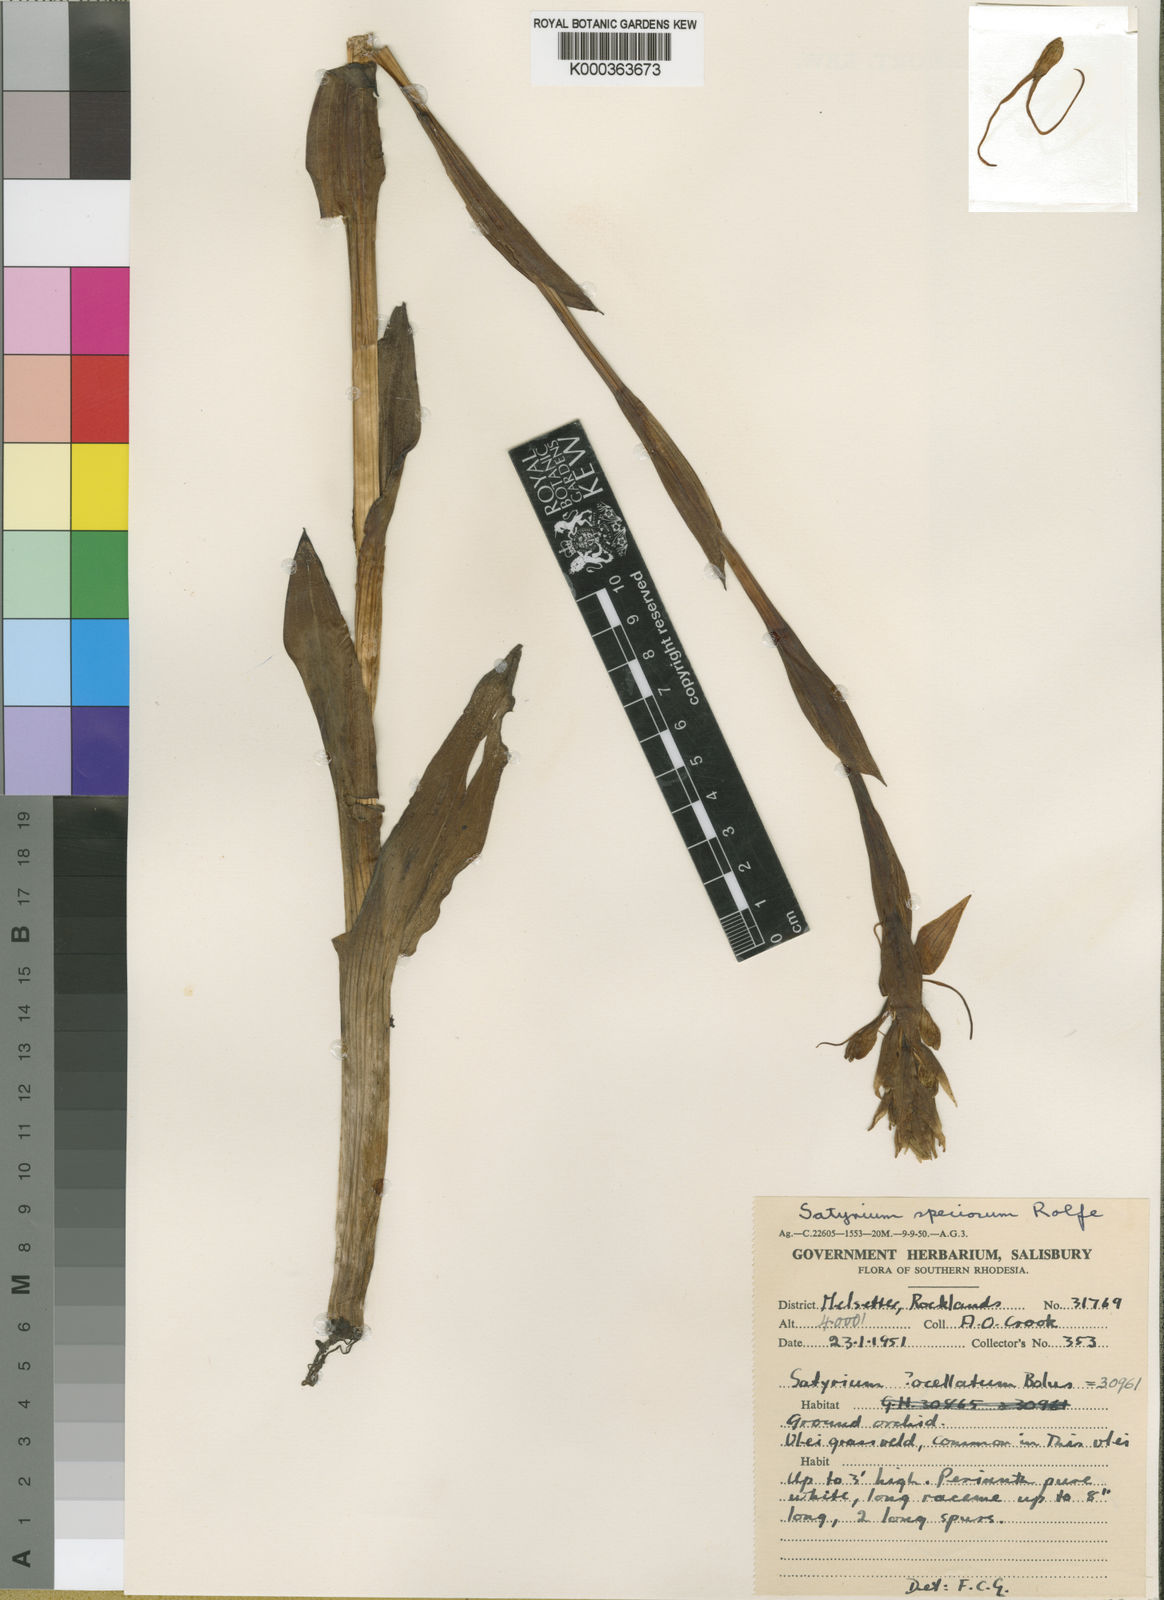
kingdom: Plantae
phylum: Tracheophyta
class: Liliopsida
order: Asparagales
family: Orchidaceae
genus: Satyrium
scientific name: Satyrium hallackii
